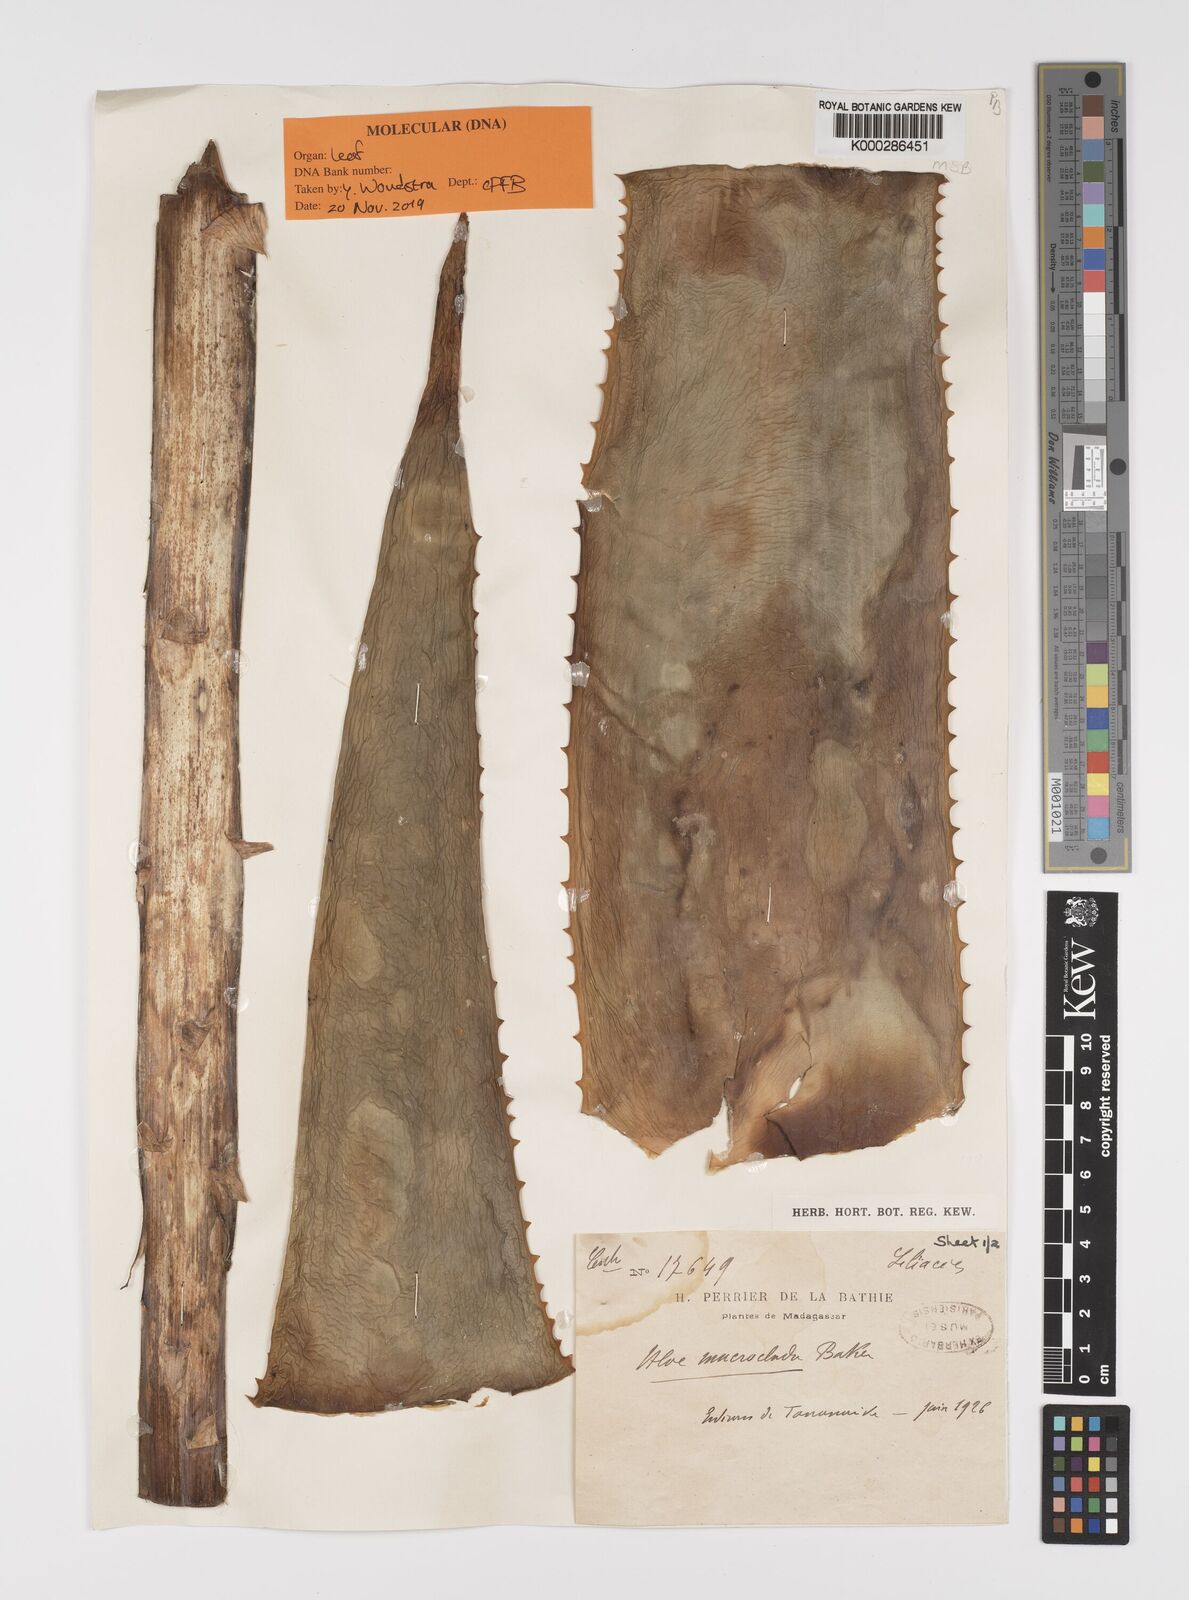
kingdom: Plantae
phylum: Tracheophyta
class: Liliopsida
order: Asparagales
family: Asphodelaceae
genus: Aloe
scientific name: Aloe macroclada
